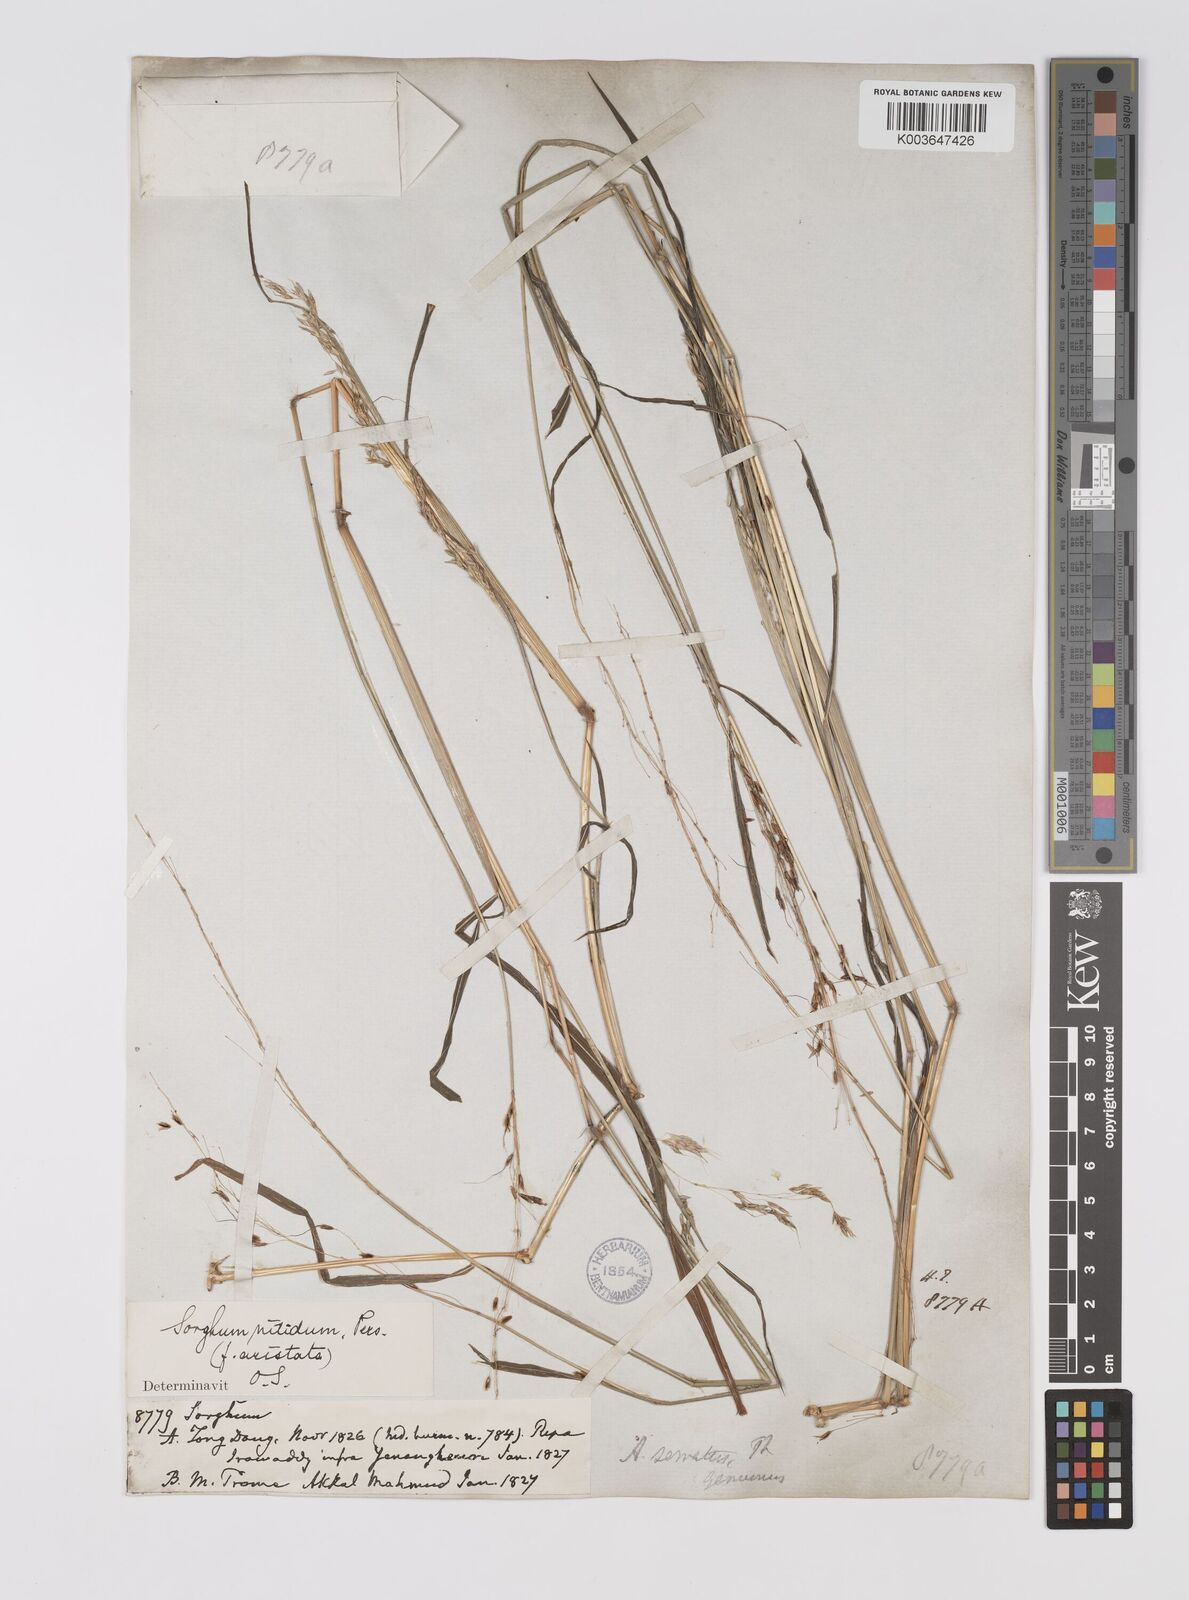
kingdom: Plantae
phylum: Tracheophyta
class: Liliopsida
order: Poales
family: Poaceae
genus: Sorghum
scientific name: Sorghum nitidum
